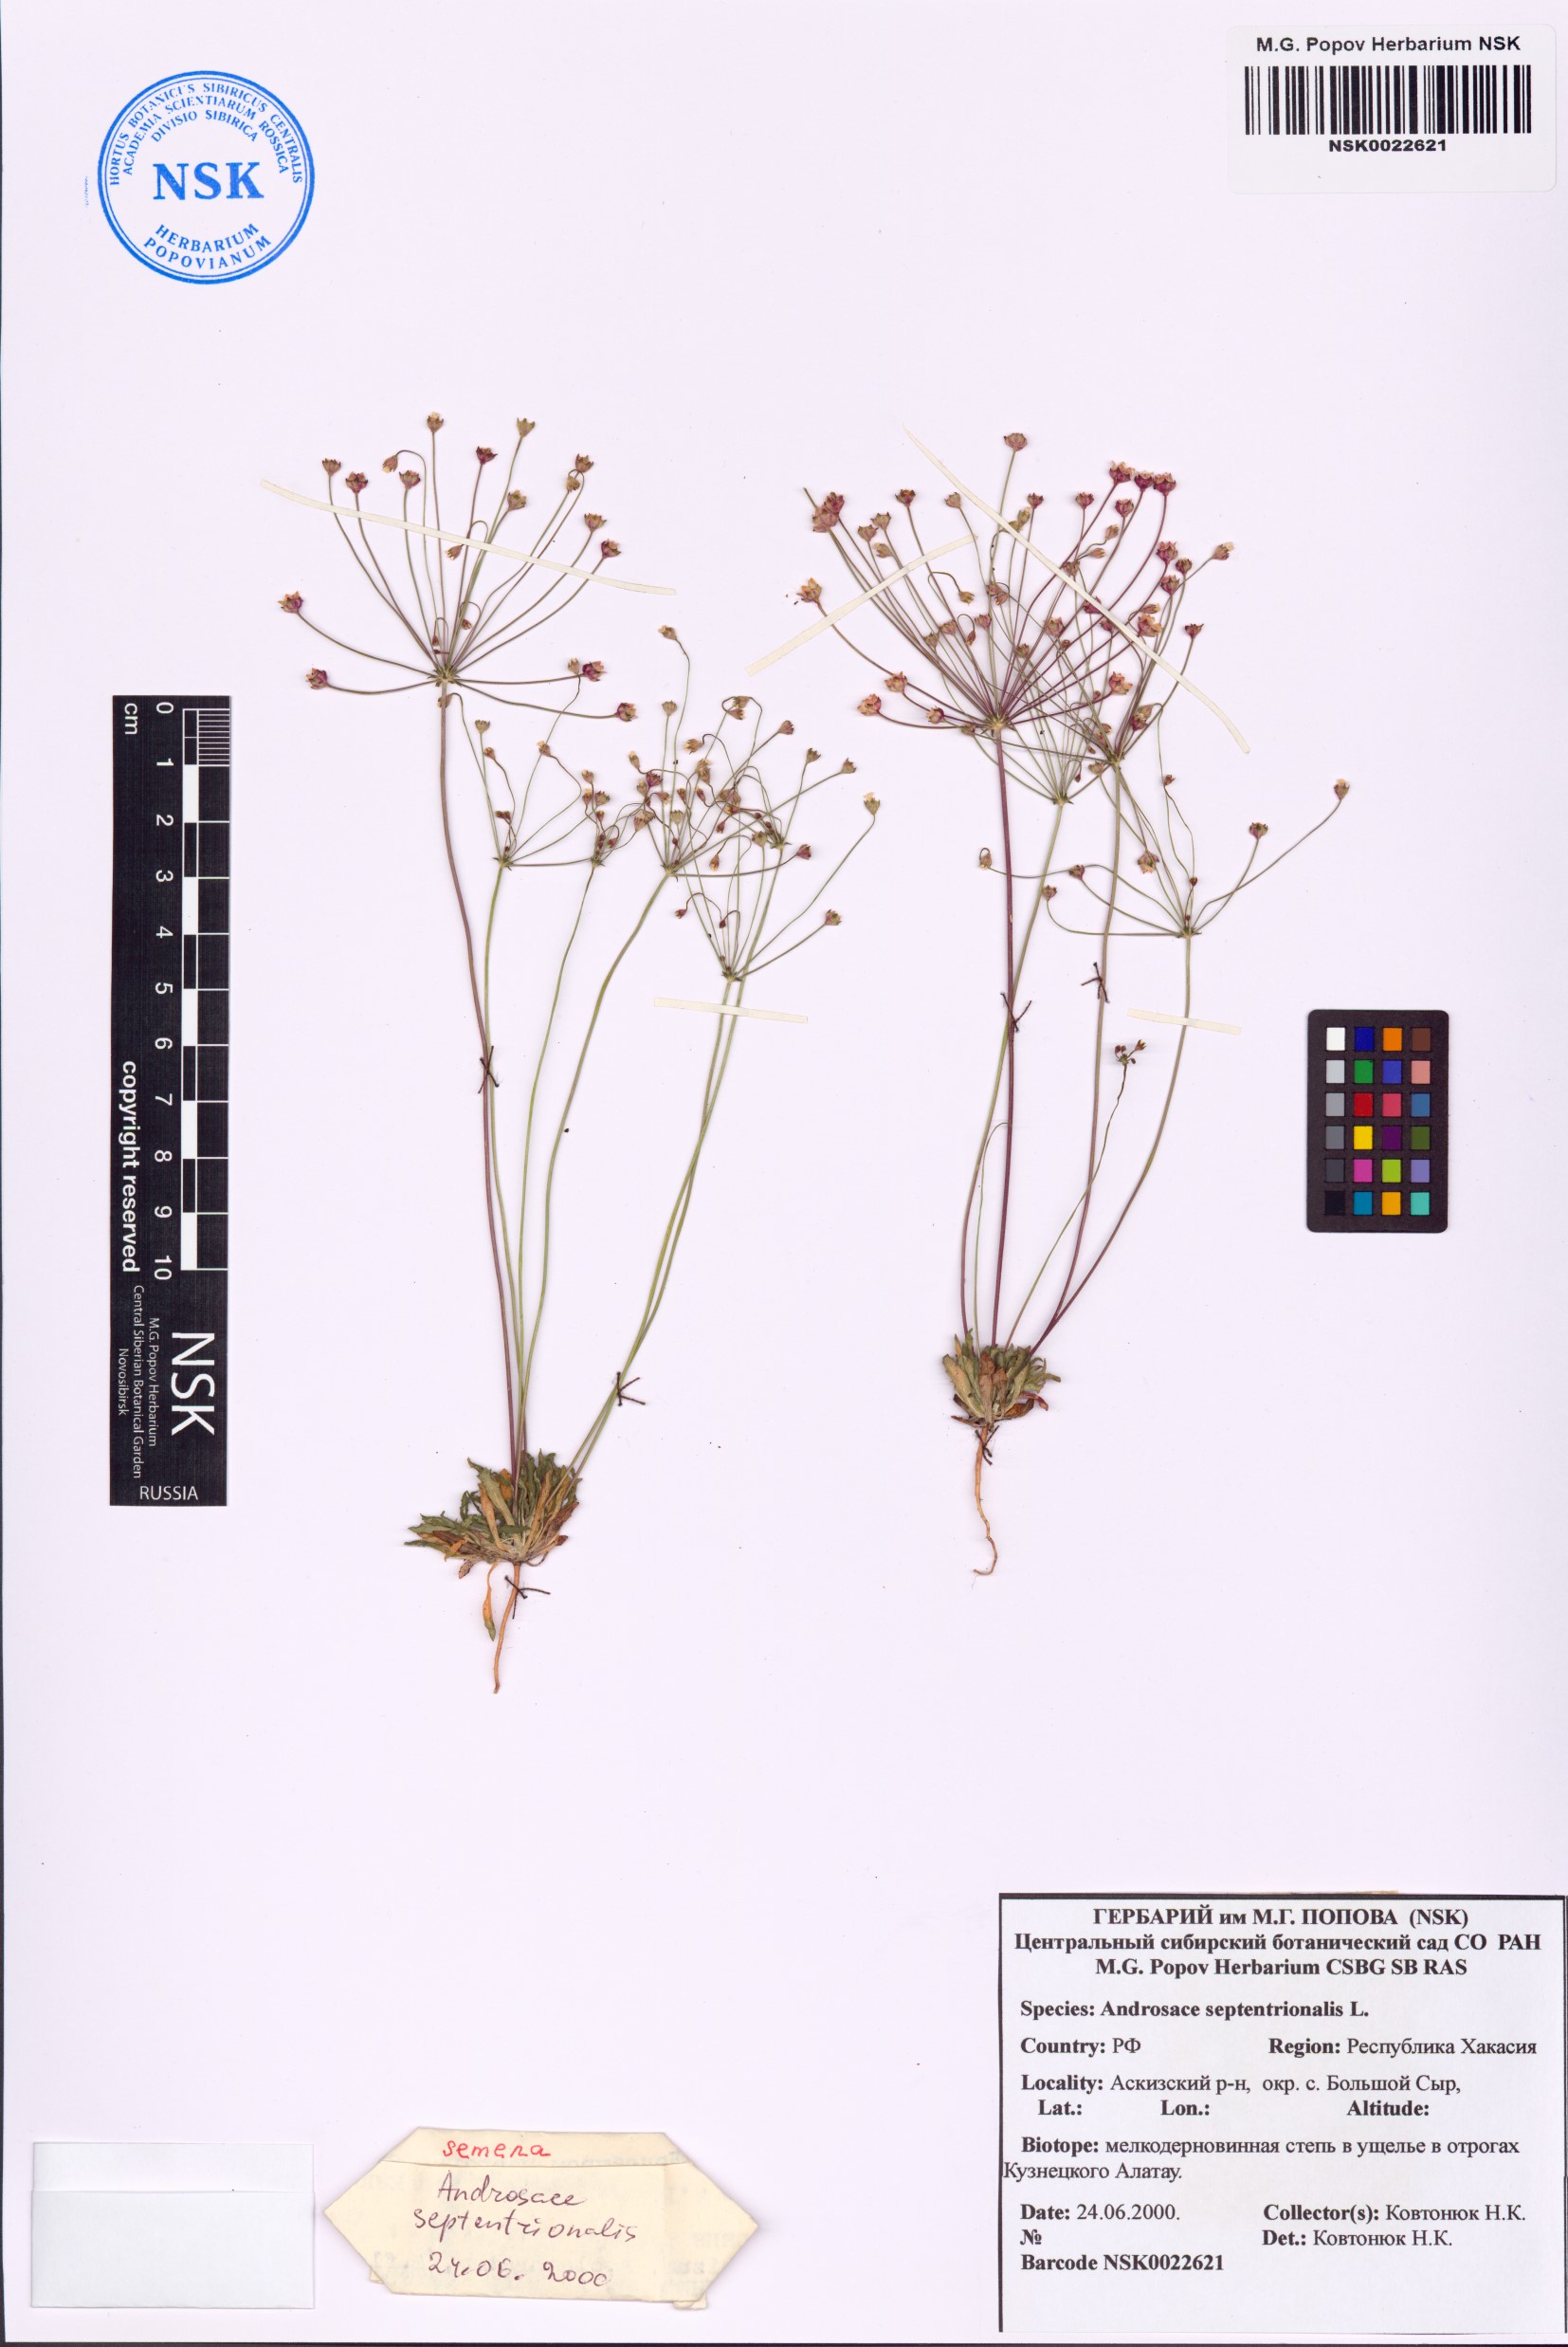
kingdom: Plantae
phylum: Tracheophyta
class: Magnoliopsida
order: Ericales
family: Primulaceae
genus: Androsace
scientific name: Androsace septentrionalis
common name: Hairy northern fairy-candelabra
